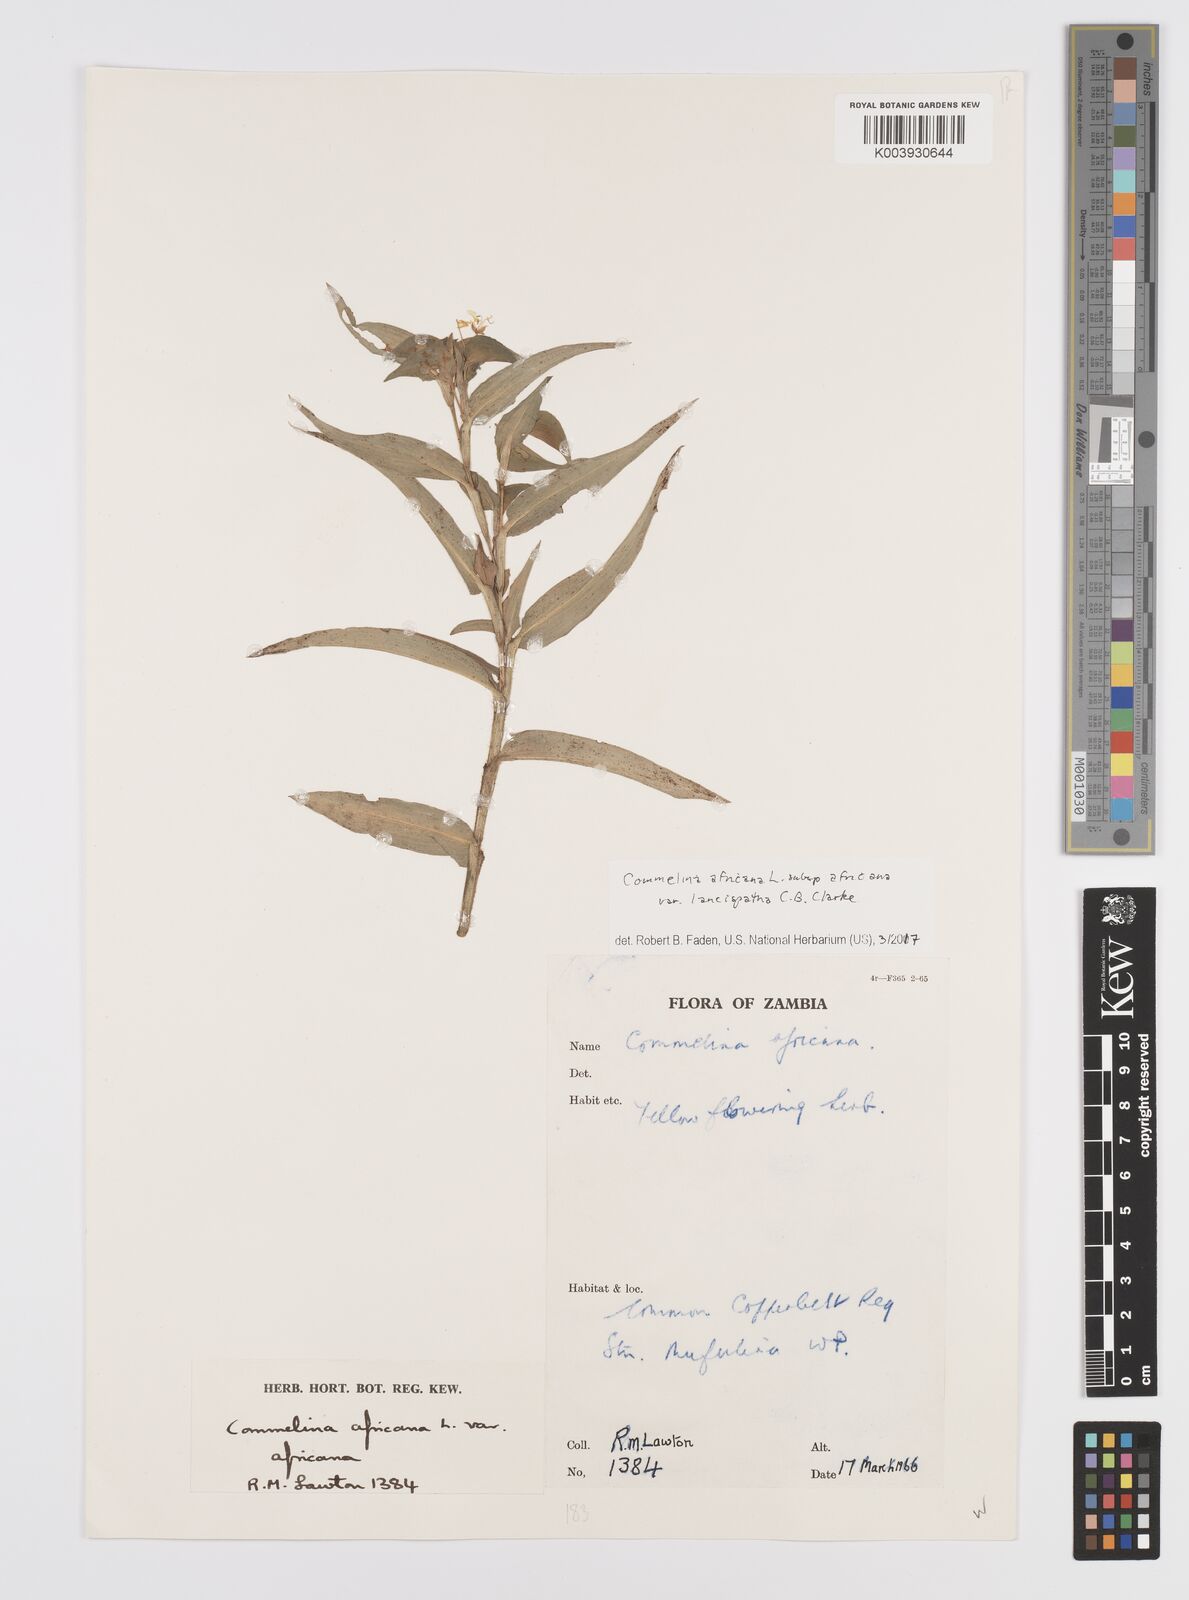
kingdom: Plantae
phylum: Tracheophyta
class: Liliopsida
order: Commelinales
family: Commelinaceae
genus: Commelina
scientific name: Commelina africana
